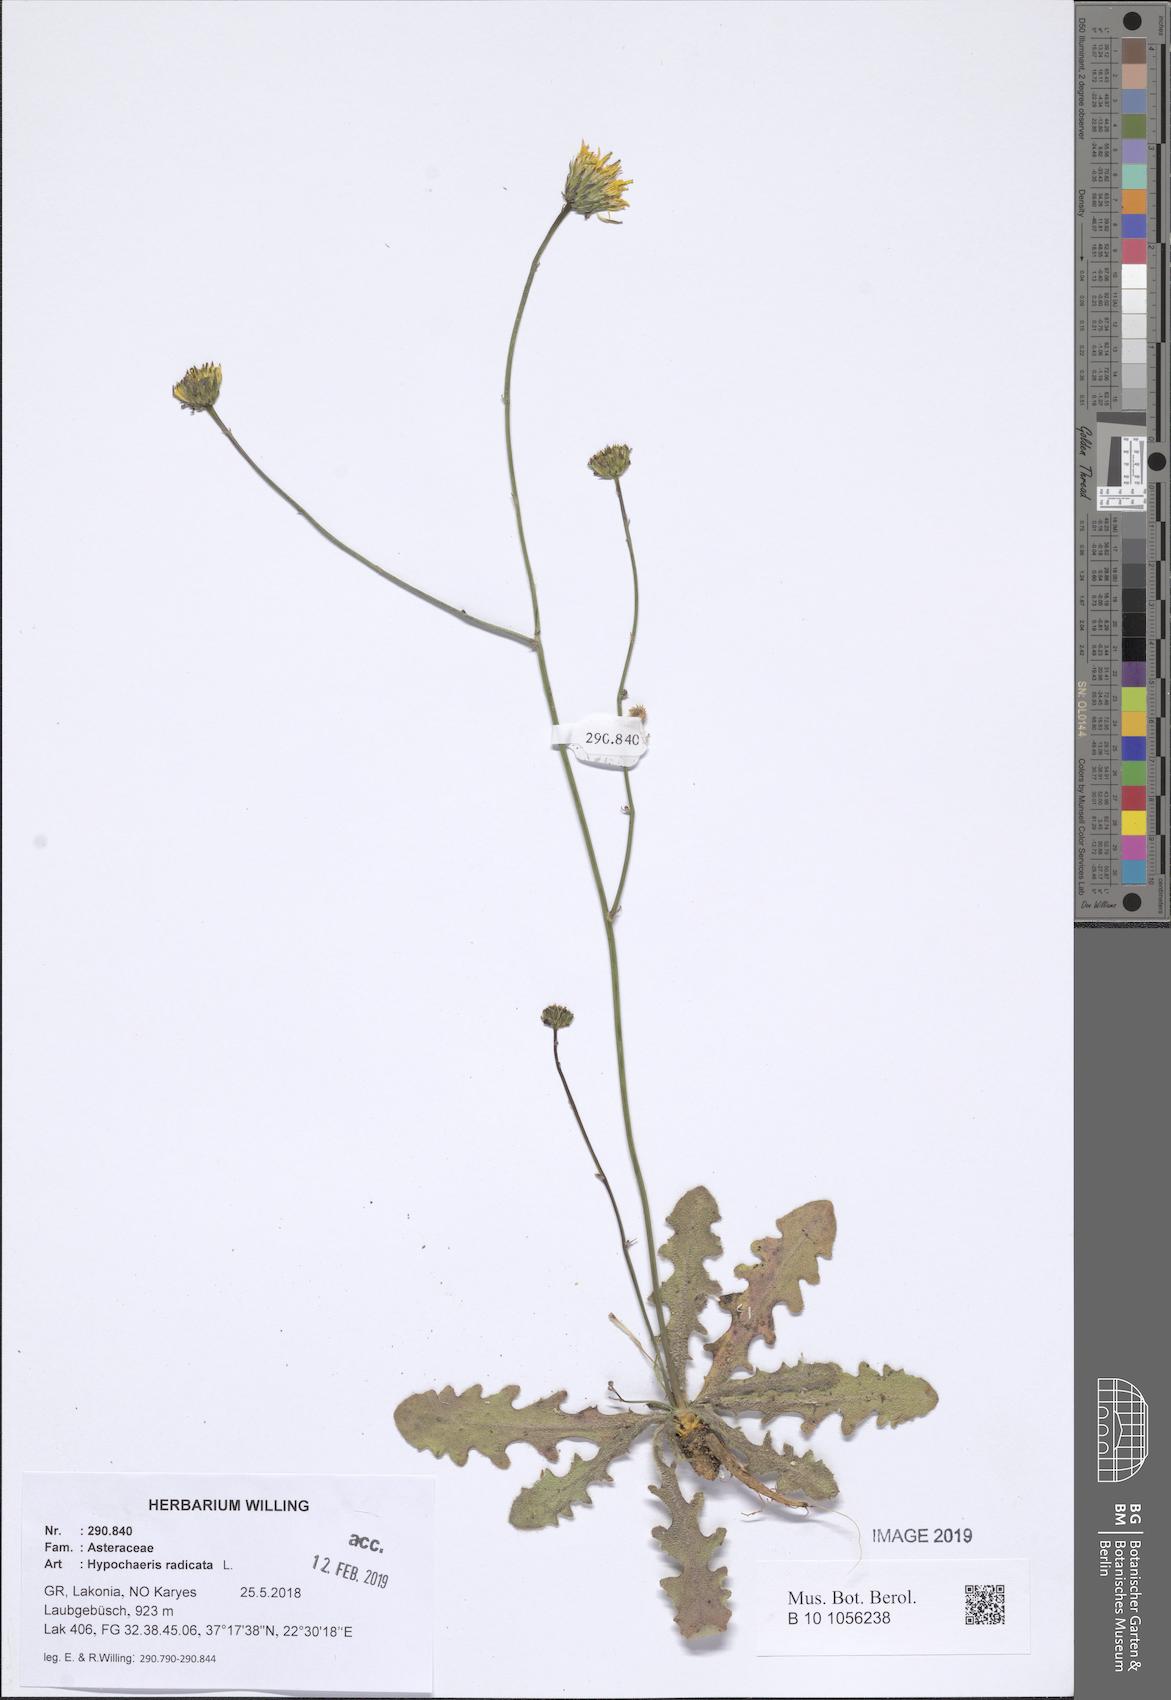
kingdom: Plantae
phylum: Tracheophyta
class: Magnoliopsida
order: Asterales
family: Asteraceae
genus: Hypochaeris
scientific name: Hypochaeris radicata
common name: Flatweed
